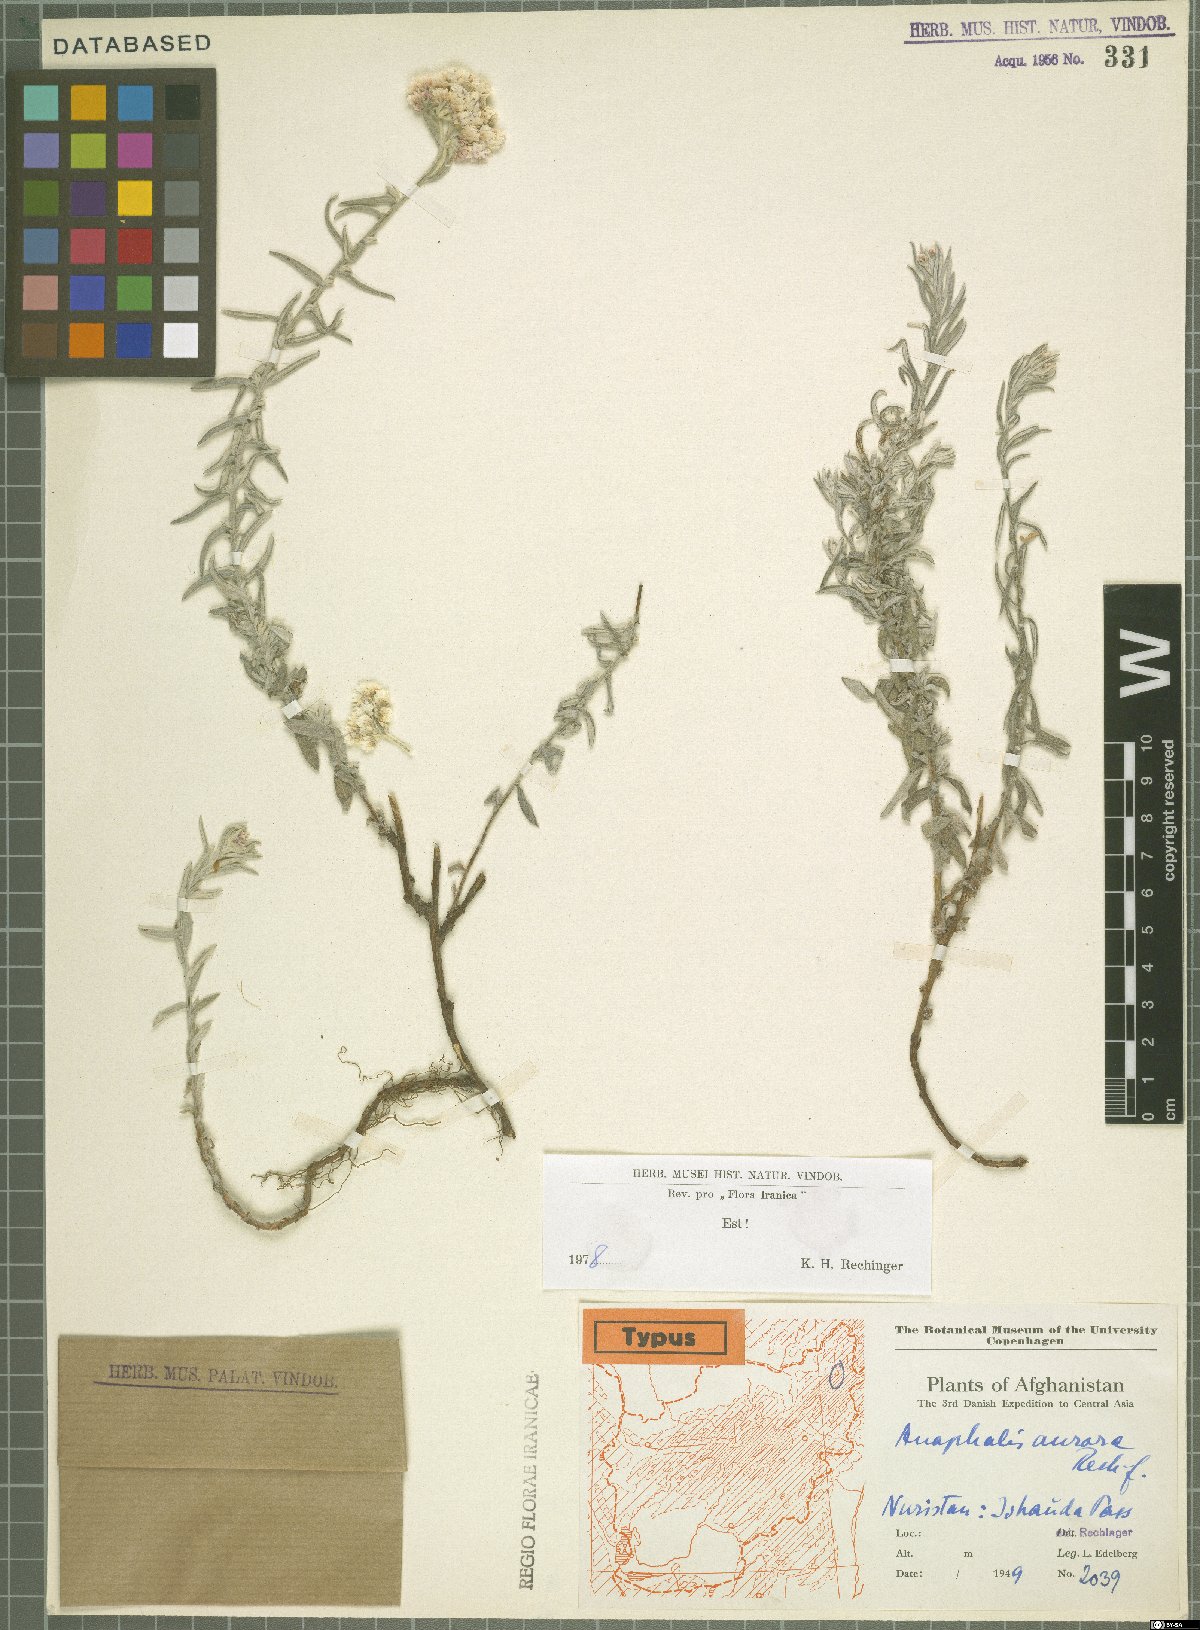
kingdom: Plantae
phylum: Tracheophyta
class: Magnoliopsida
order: Asterales
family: Asteraceae
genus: Anaphalis
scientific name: Anaphalis roseoalba
